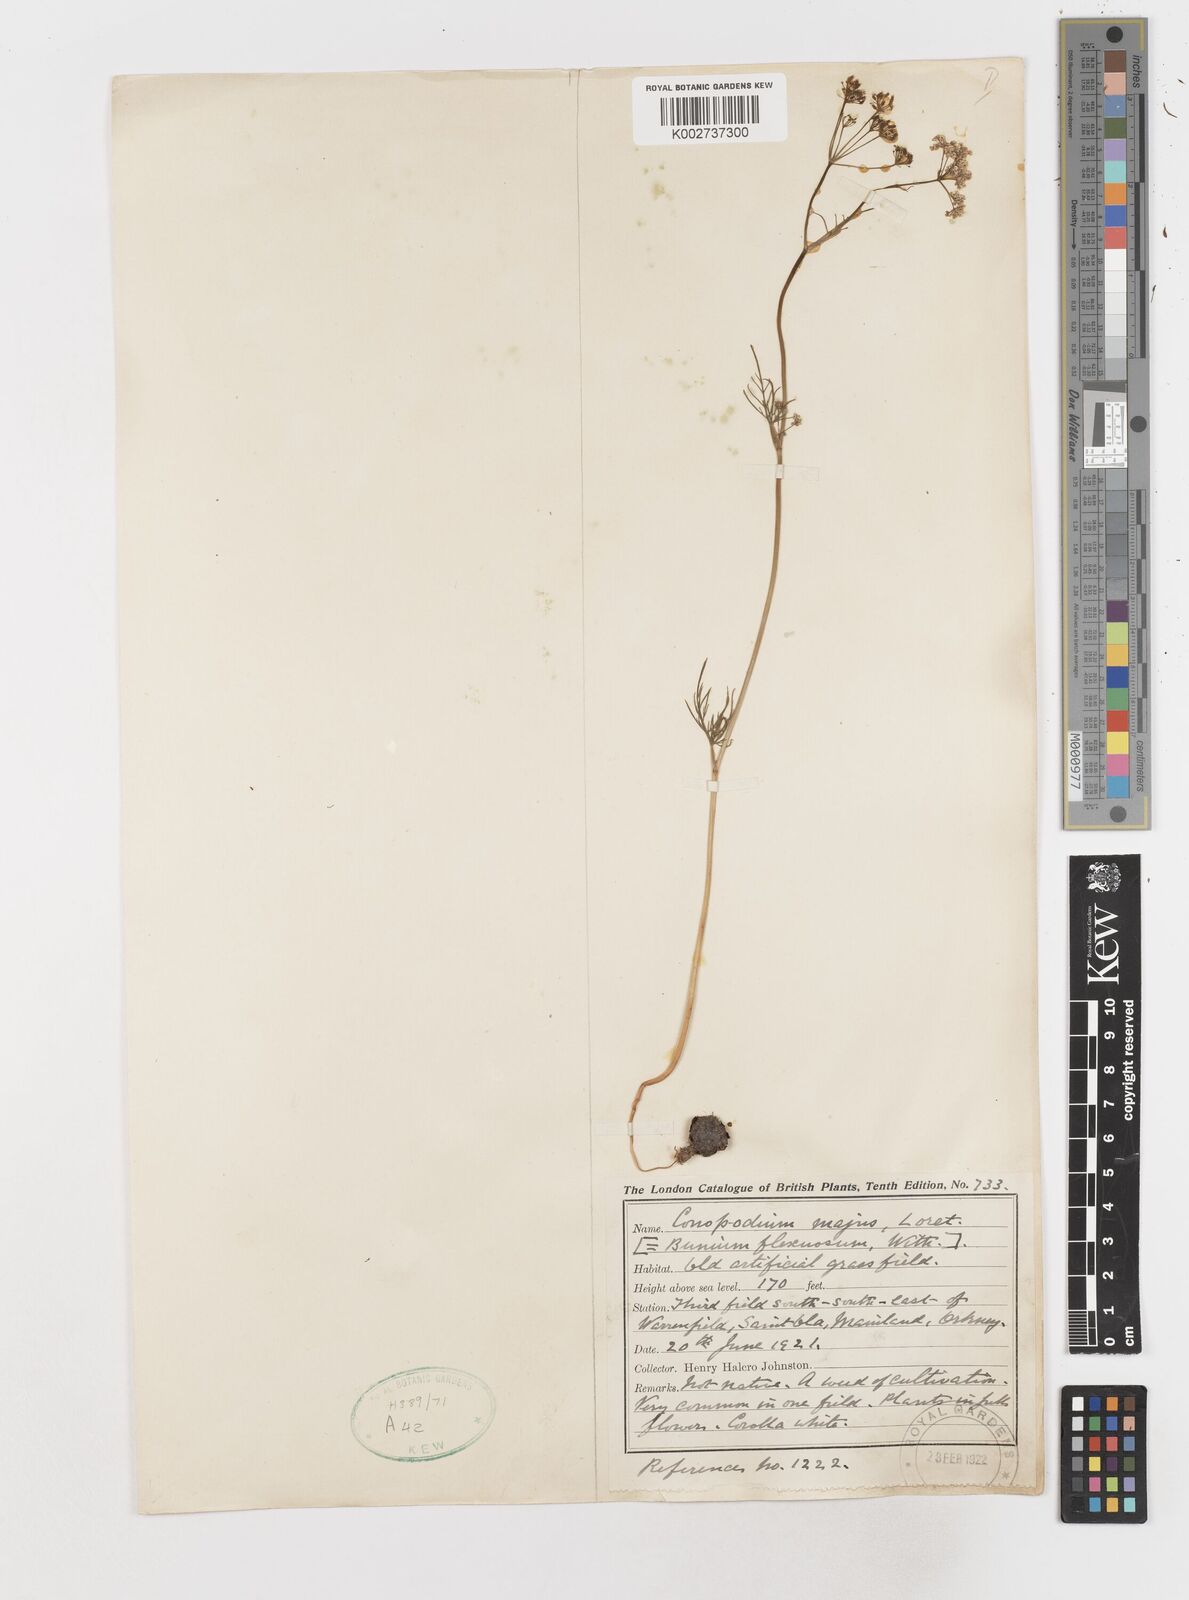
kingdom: Plantae
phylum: Tracheophyta
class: Magnoliopsida
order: Apiales
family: Apiaceae
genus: Conopodium
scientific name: Conopodium
